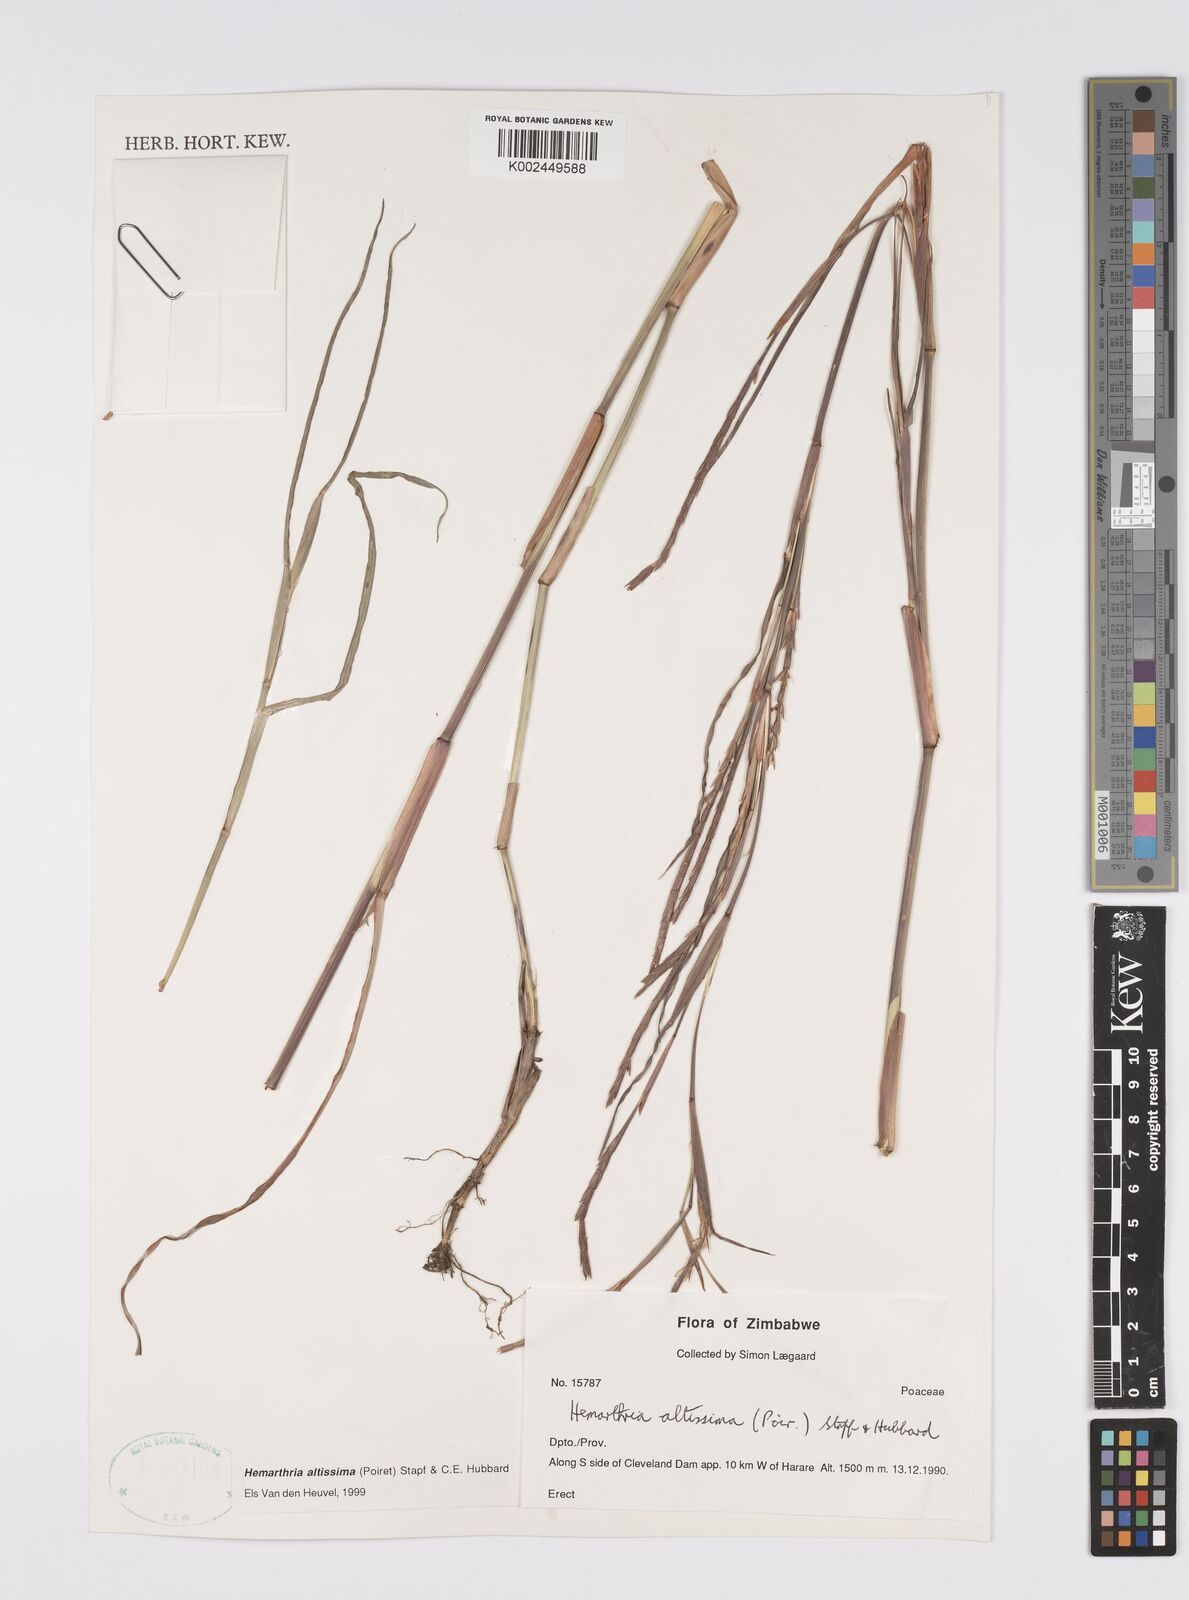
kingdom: Plantae
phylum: Tracheophyta
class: Liliopsida
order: Poales
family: Poaceae
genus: Hemarthria
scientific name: Hemarthria altissima
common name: African jointgrass
